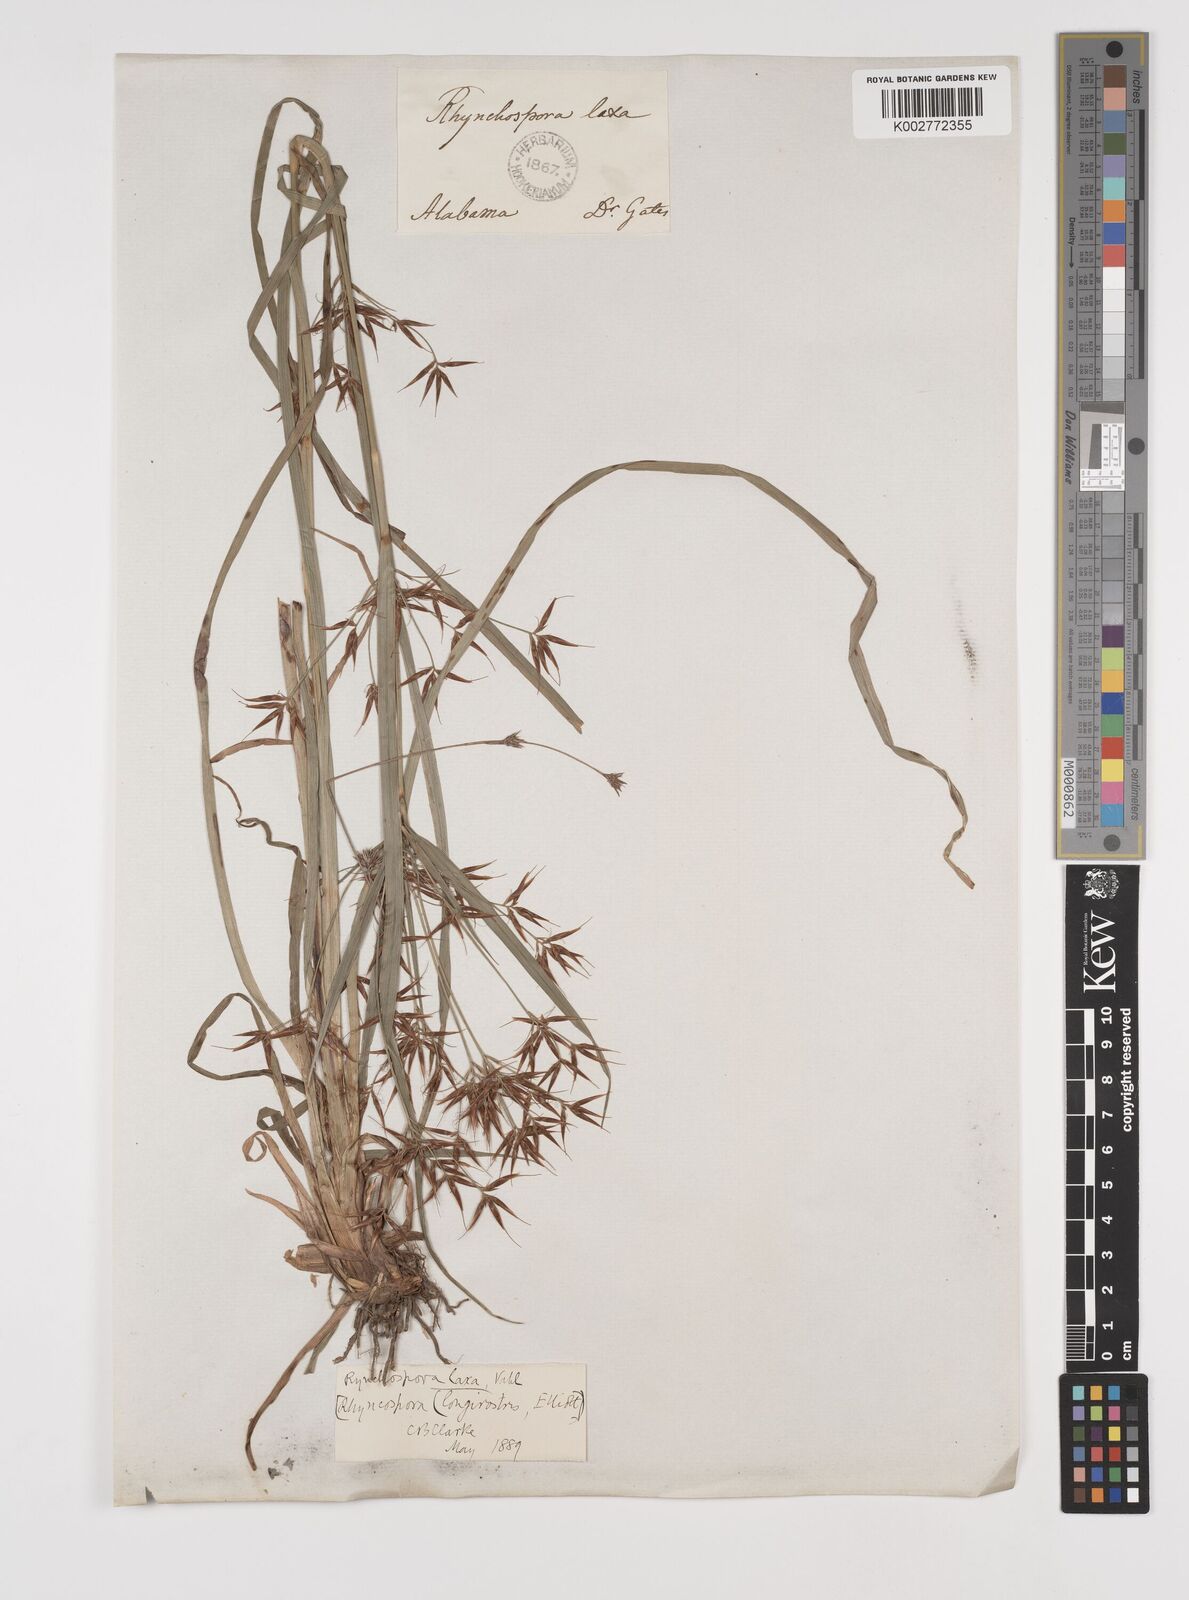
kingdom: Plantae
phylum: Tracheophyta
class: Liliopsida
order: Poales
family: Cyperaceae
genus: Rhynchospora
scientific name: Rhynchospora corniculata
